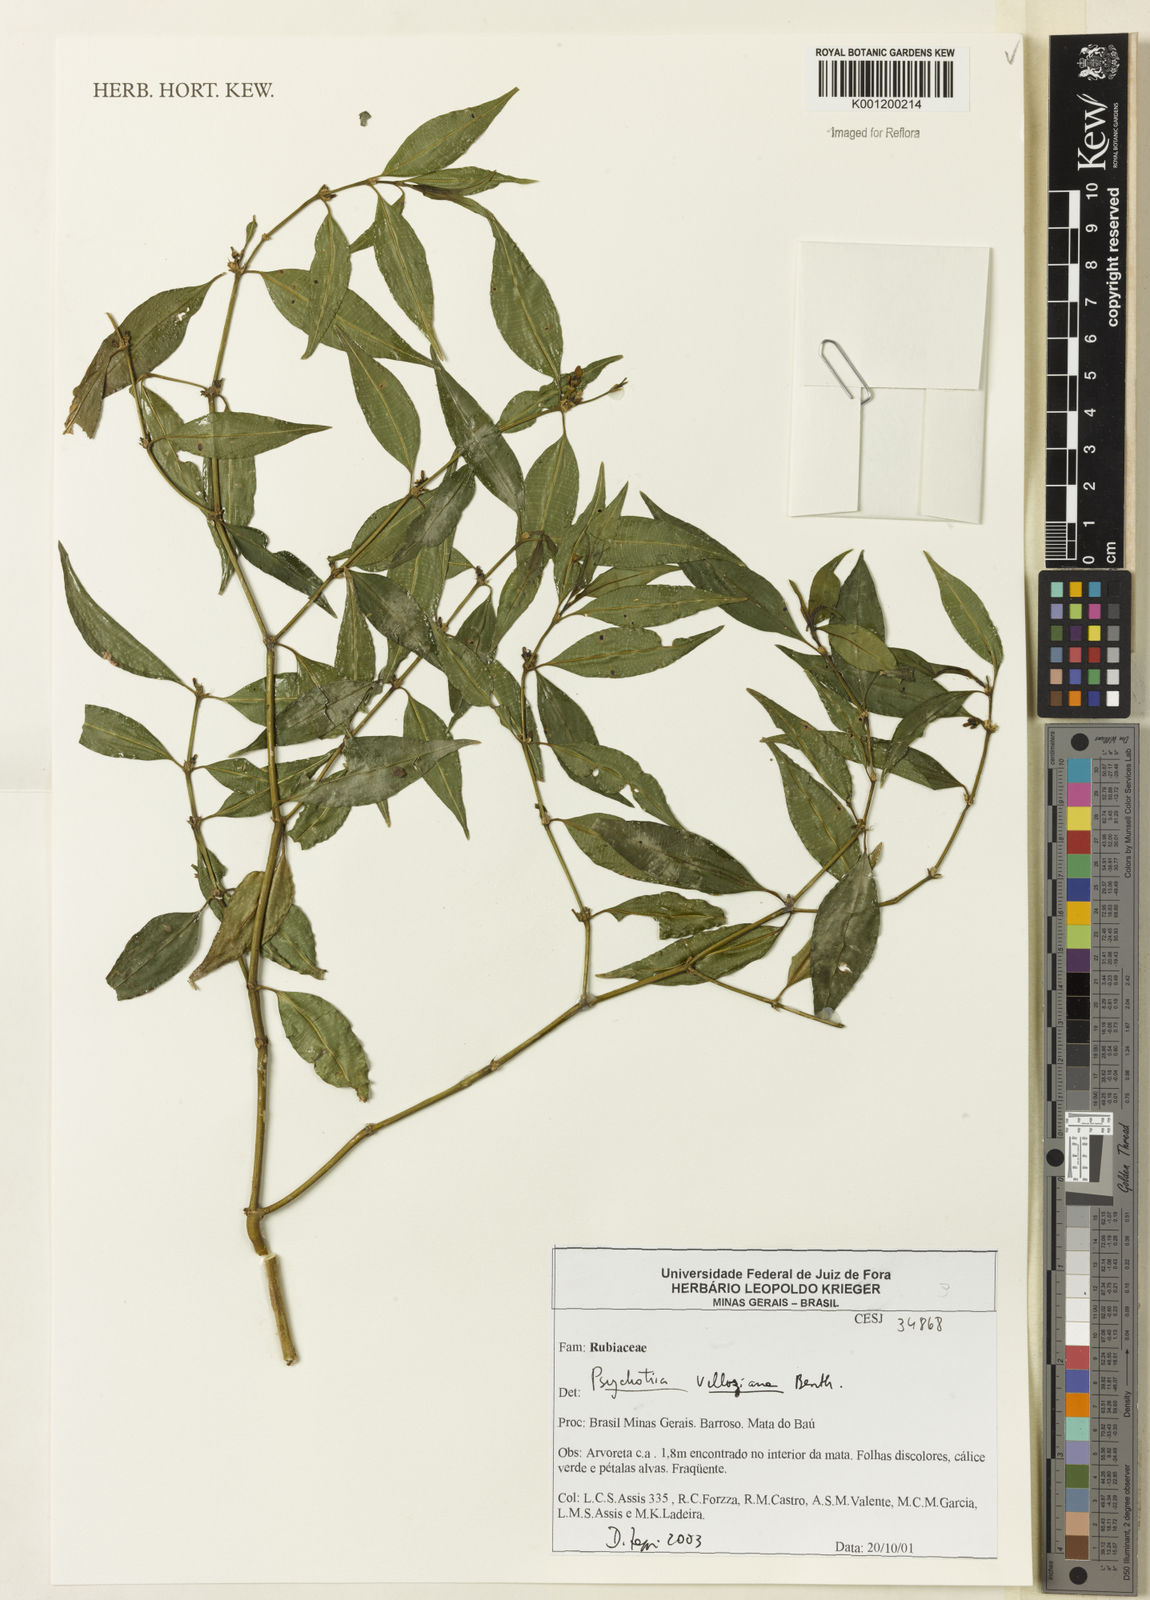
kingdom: Plantae
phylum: Tracheophyta
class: Magnoliopsida
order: Gentianales
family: Rubiaceae
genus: Palicourea
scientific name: Palicourea sessilis
